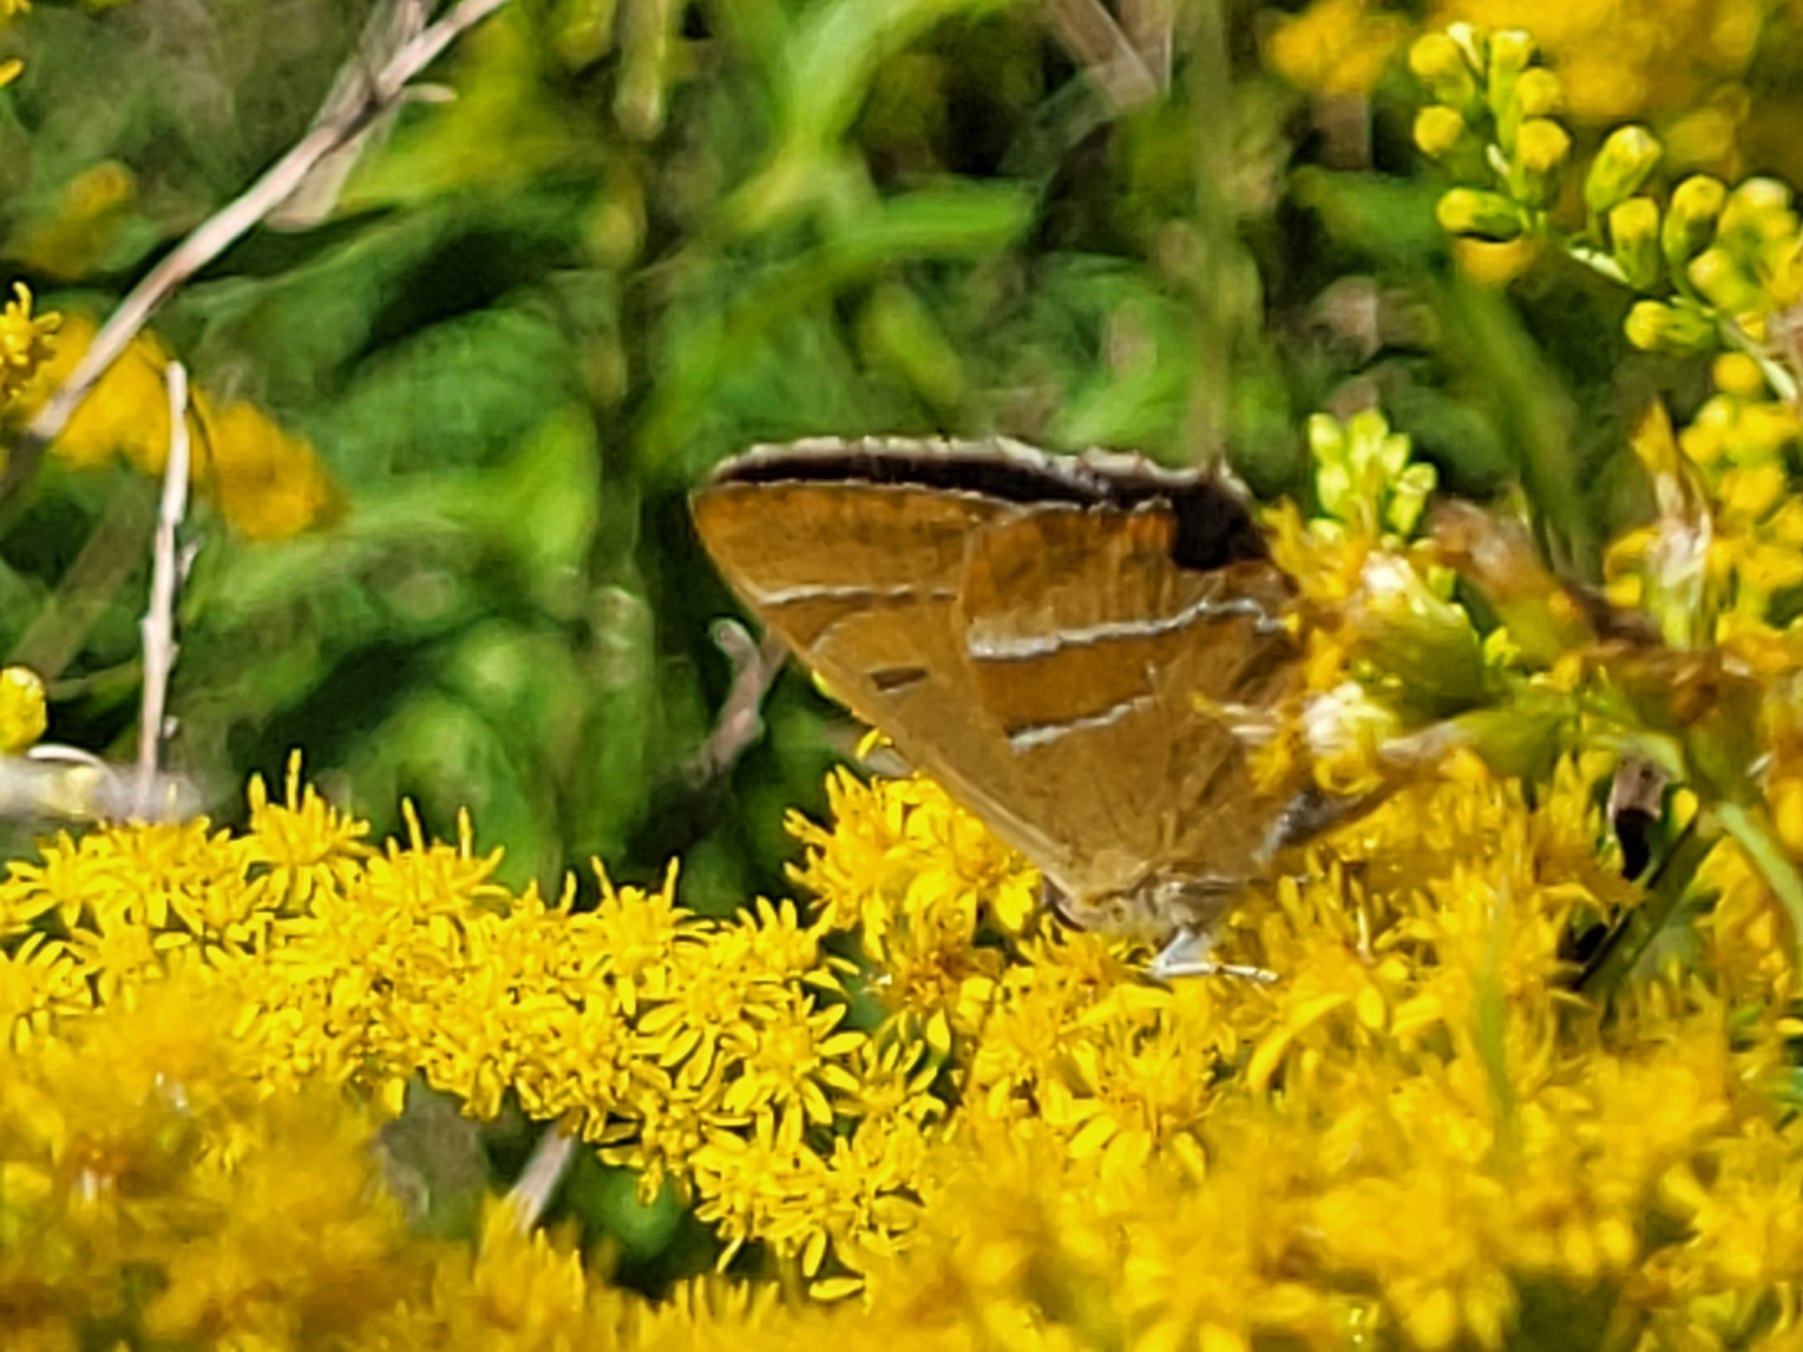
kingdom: Animalia
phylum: Arthropoda
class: Insecta
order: Lepidoptera
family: Lycaenidae
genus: Thecla
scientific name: Thecla betulae
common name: Guldhale
